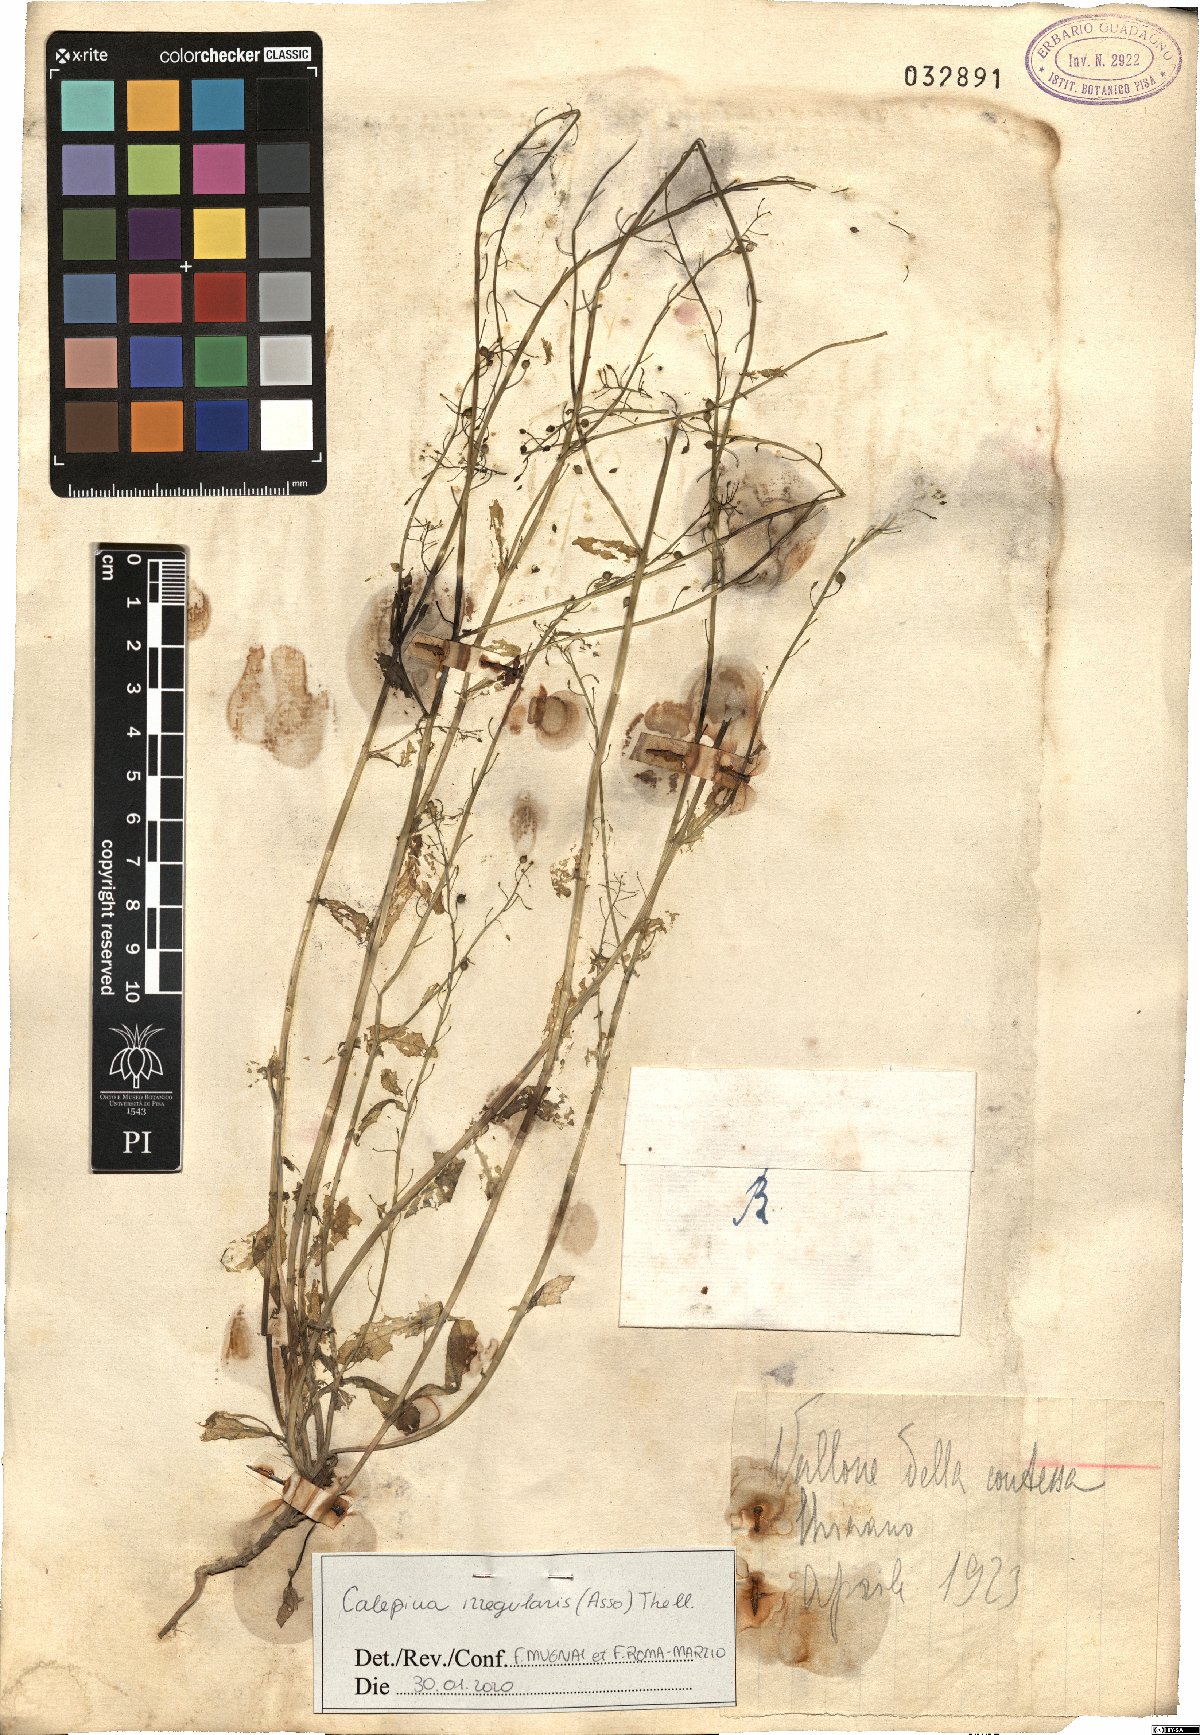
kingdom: Plantae
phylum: Tracheophyta
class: Magnoliopsida
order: Brassicales
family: Brassicaceae
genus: Calepina
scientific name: Calepina irregularis
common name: White ballmustard
